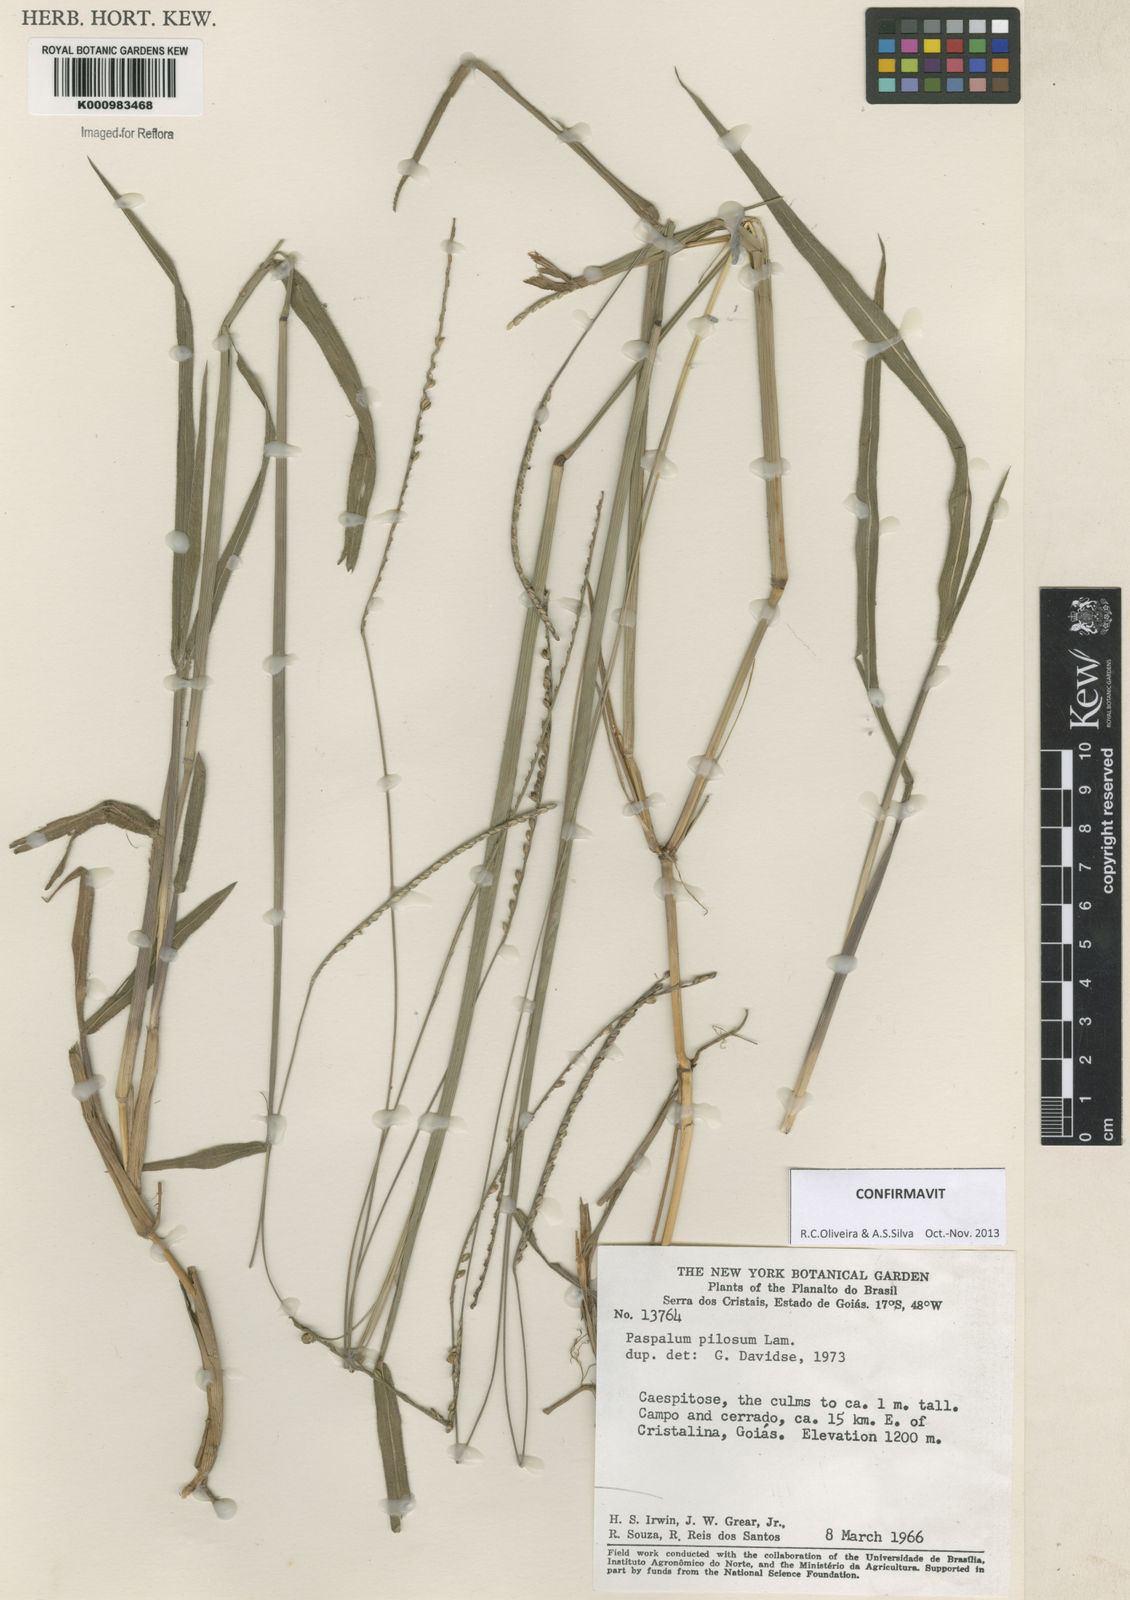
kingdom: Plantae
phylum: Tracheophyta
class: Liliopsida
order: Poales
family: Poaceae
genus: Paspalum
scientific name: Paspalum pilosum
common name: Crowngrass
